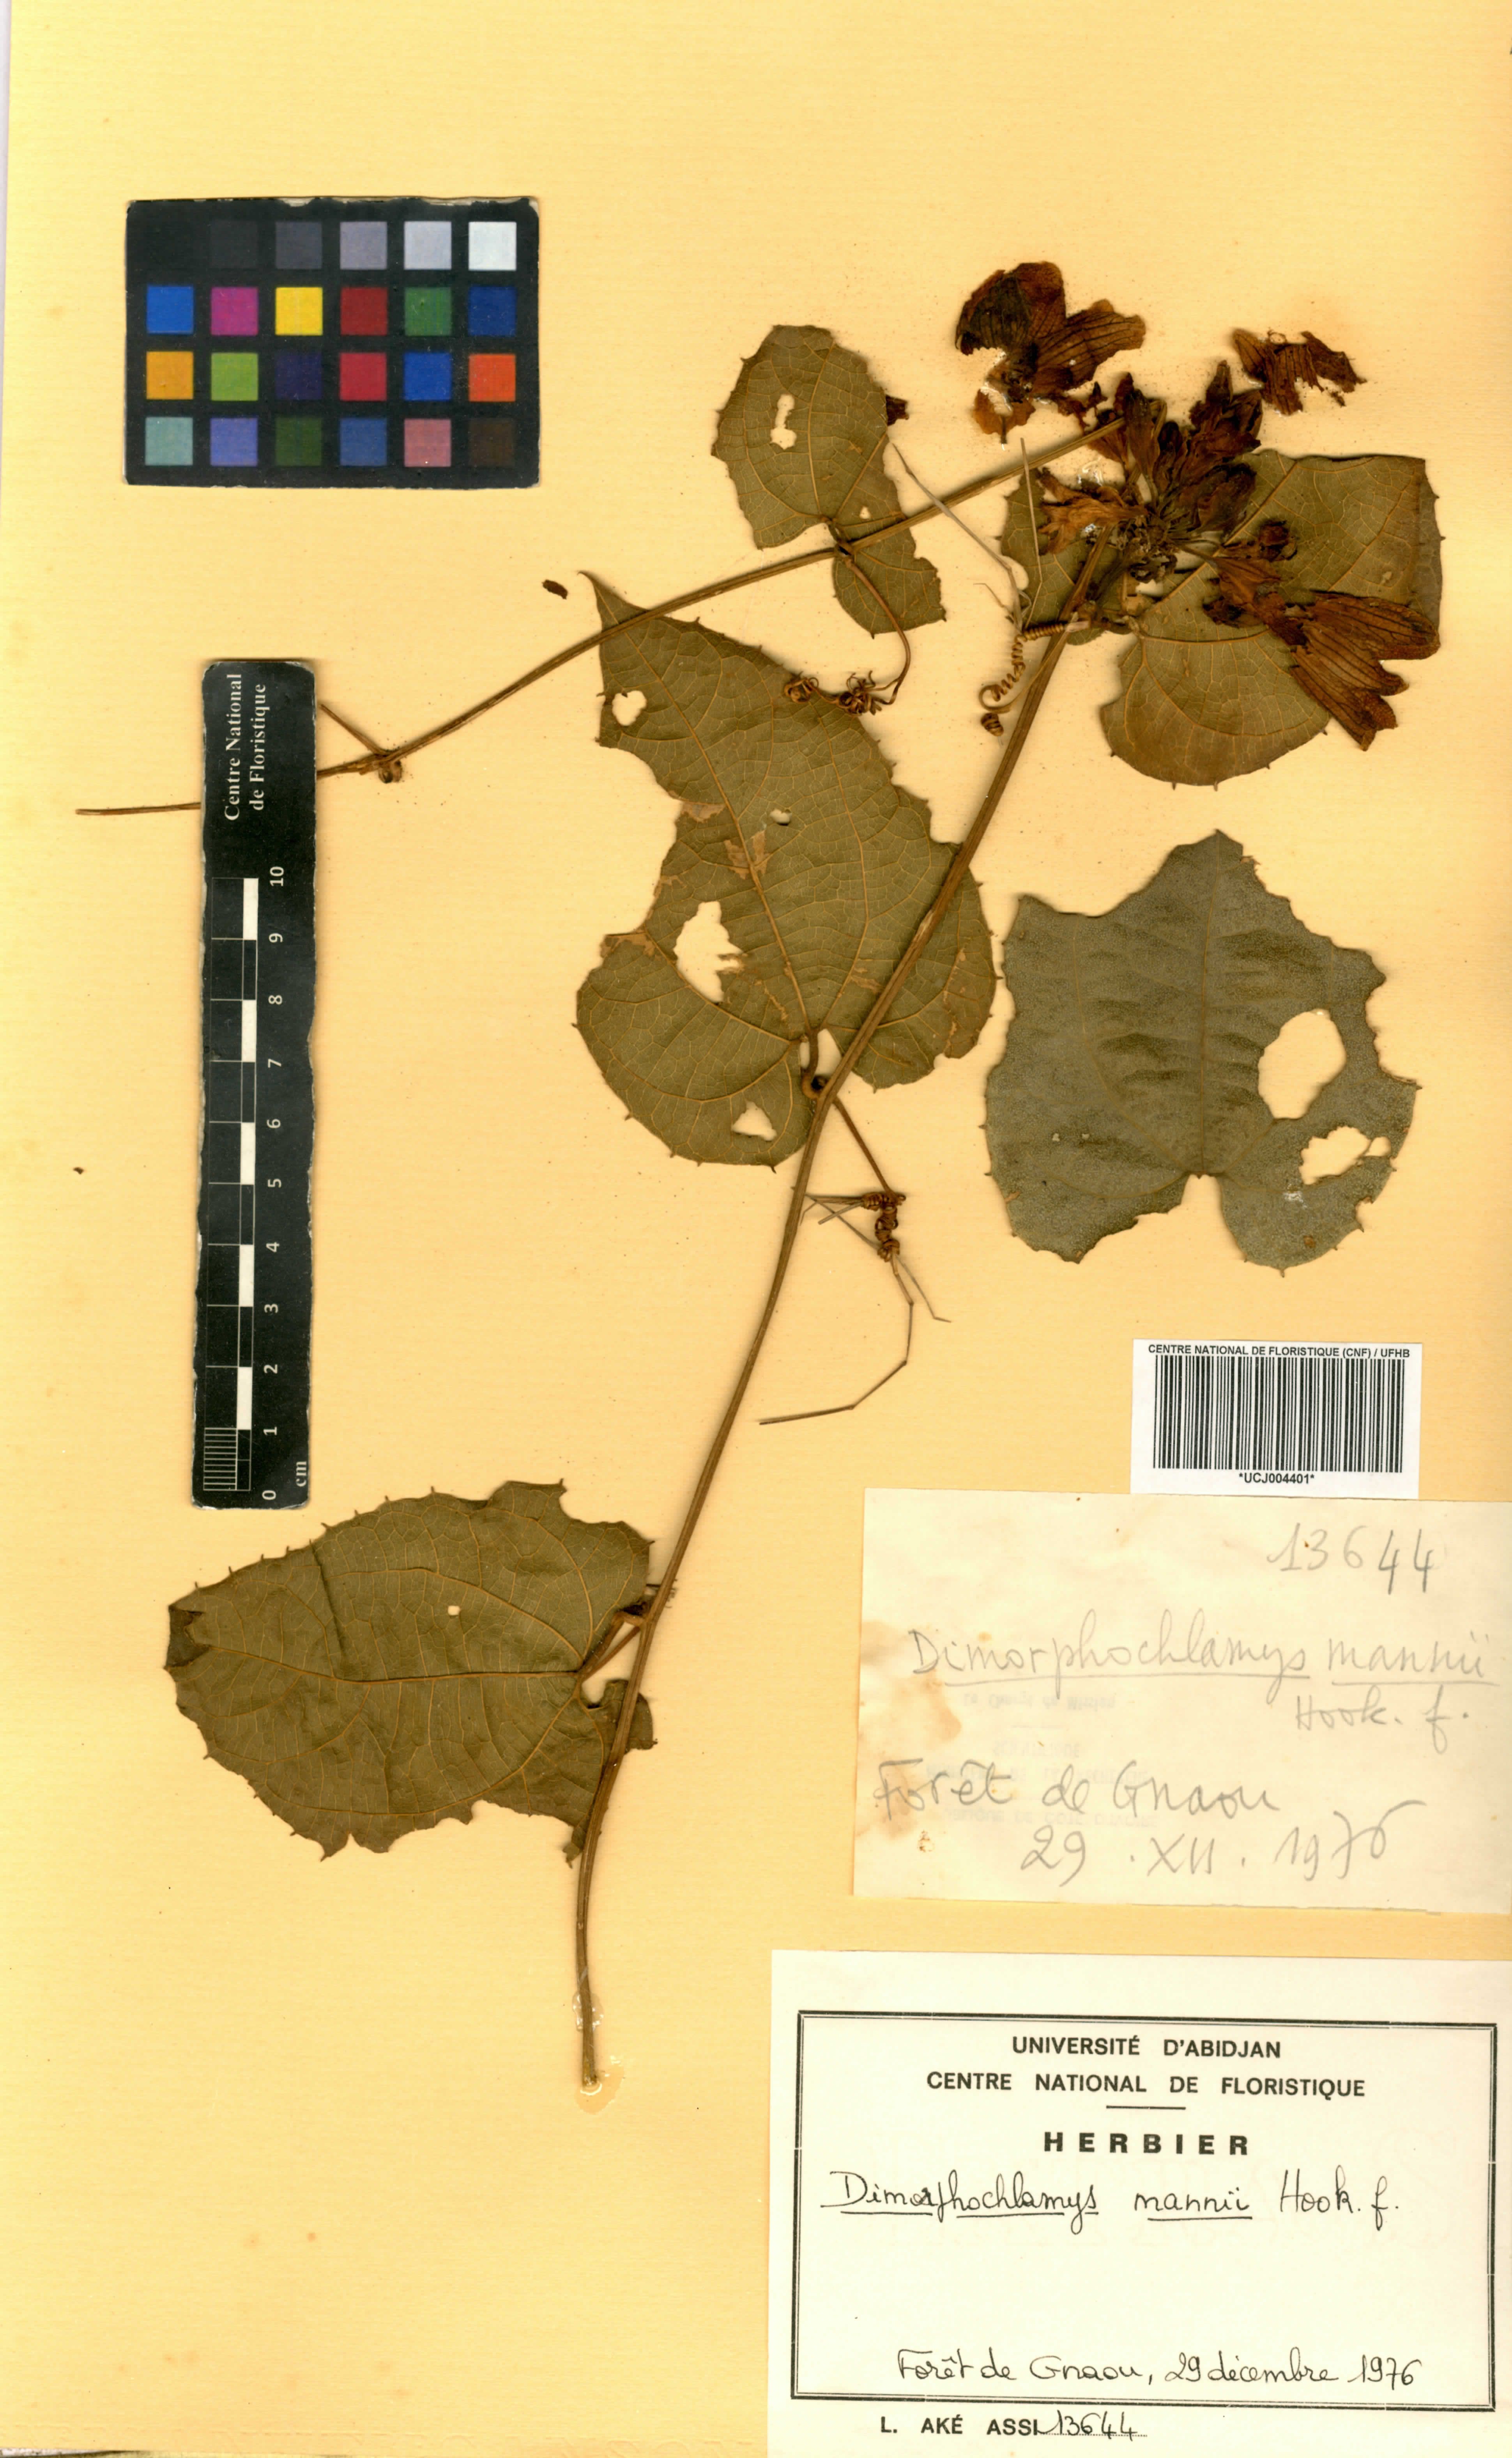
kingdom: Plantae
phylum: Tracheophyta
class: Magnoliopsida
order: Cucurbitales
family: Cucurbitaceae
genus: Momordica
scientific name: Momordica cabrae
